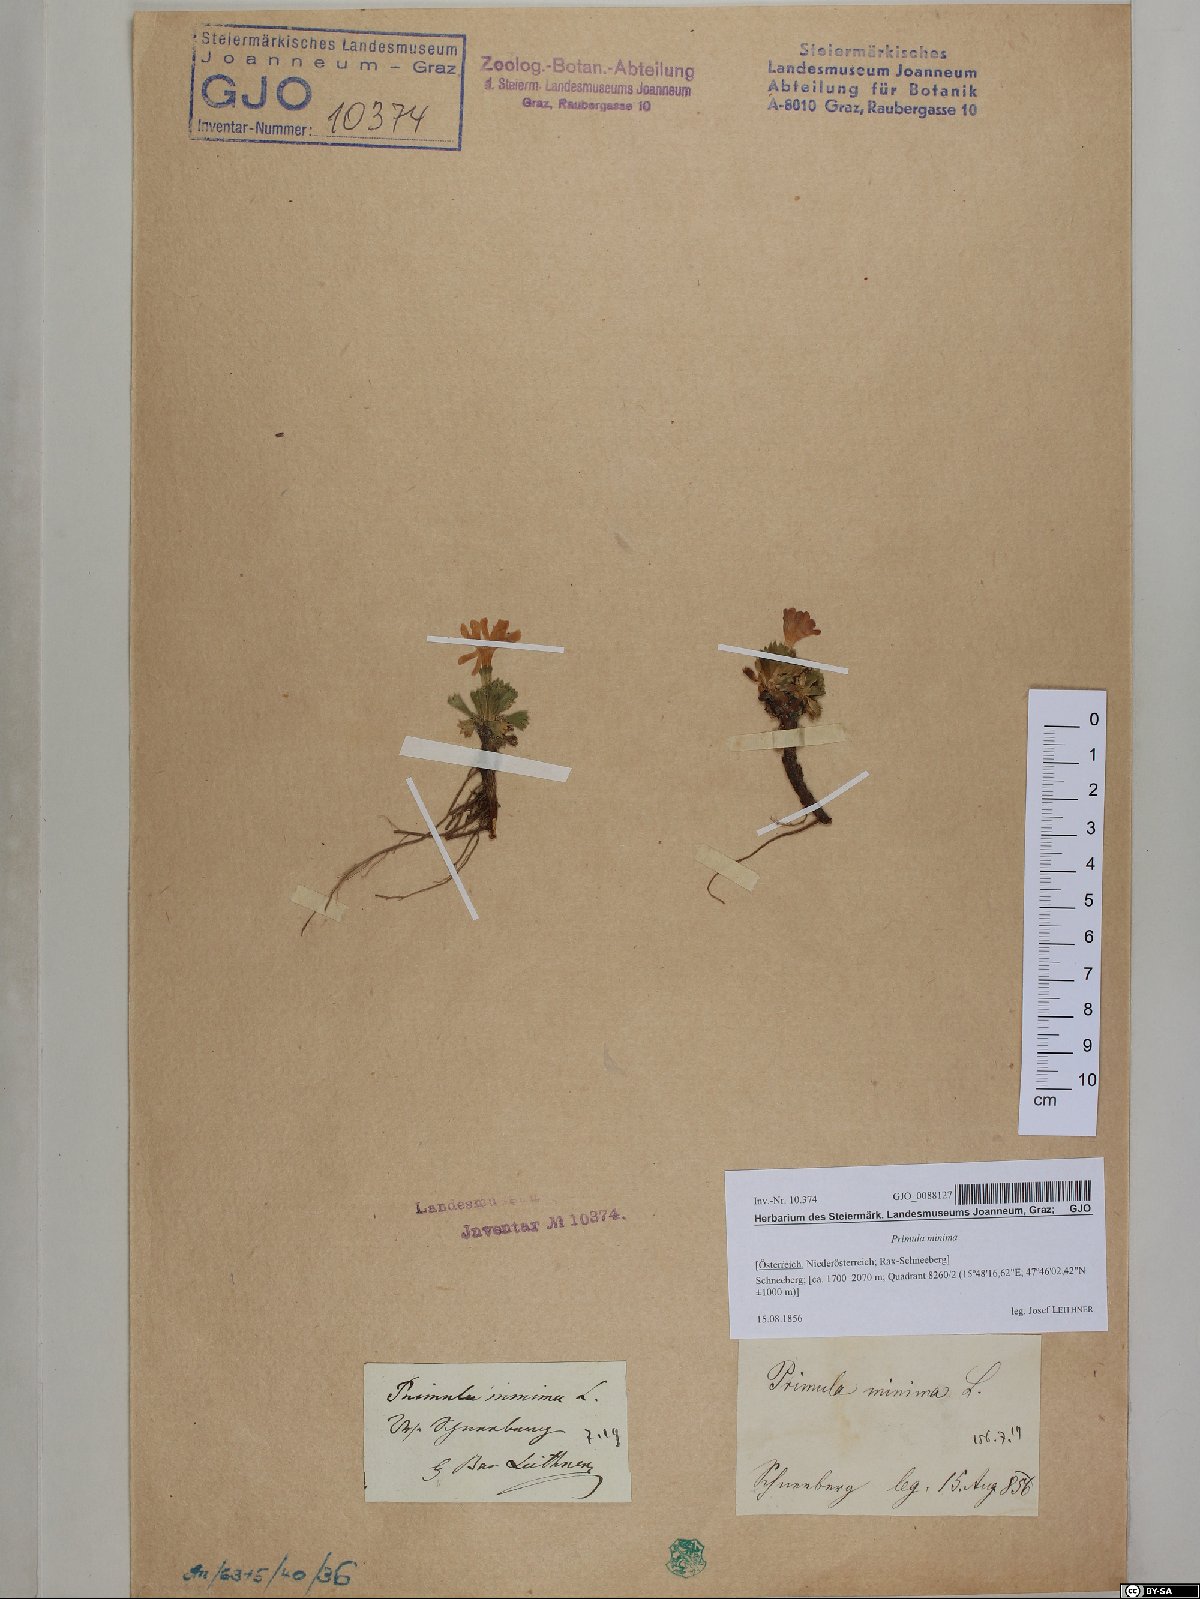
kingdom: Plantae
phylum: Tracheophyta
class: Magnoliopsida
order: Ericales
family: Primulaceae
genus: Primula
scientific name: Primula minima
